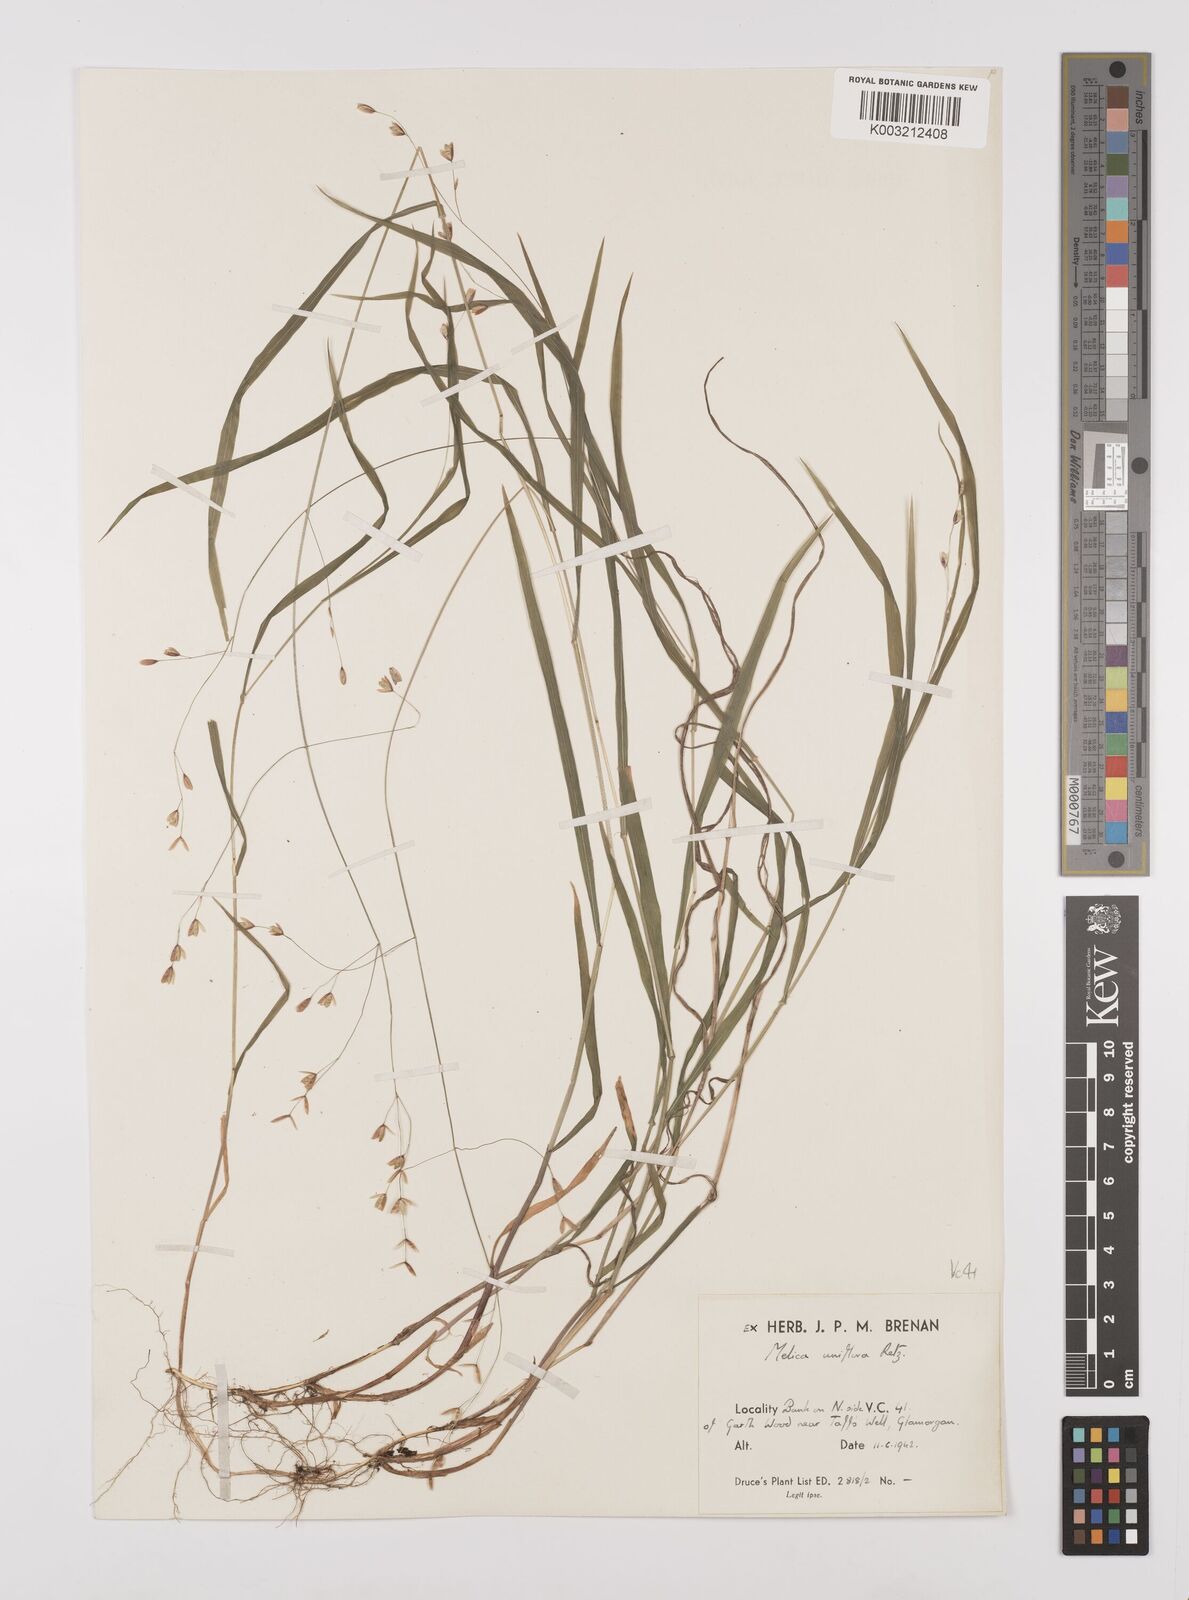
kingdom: Plantae
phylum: Tracheophyta
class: Liliopsida
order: Poales
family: Poaceae
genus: Melica
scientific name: Melica uniflora
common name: Wood melick
